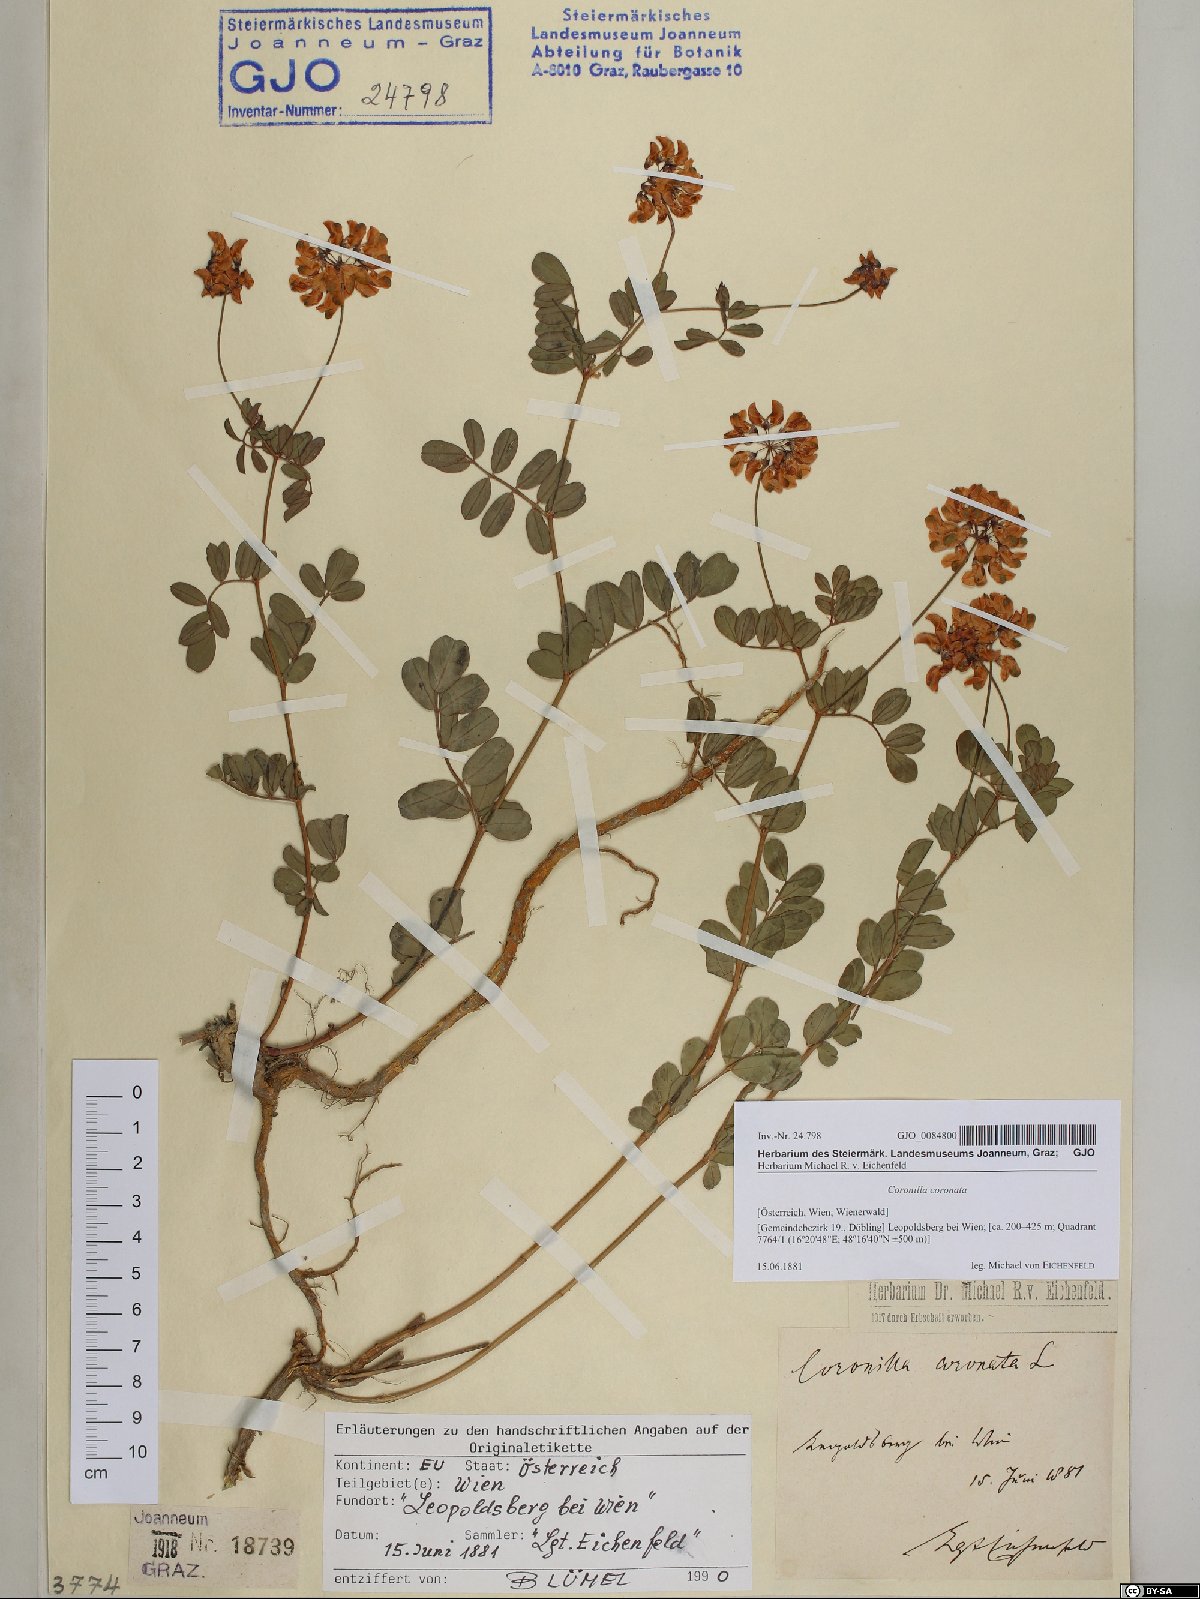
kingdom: Plantae
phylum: Tracheophyta
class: Magnoliopsida
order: Fabales
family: Fabaceae
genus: Coronilla
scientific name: Coronilla coronata
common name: Scorpion-vetch
